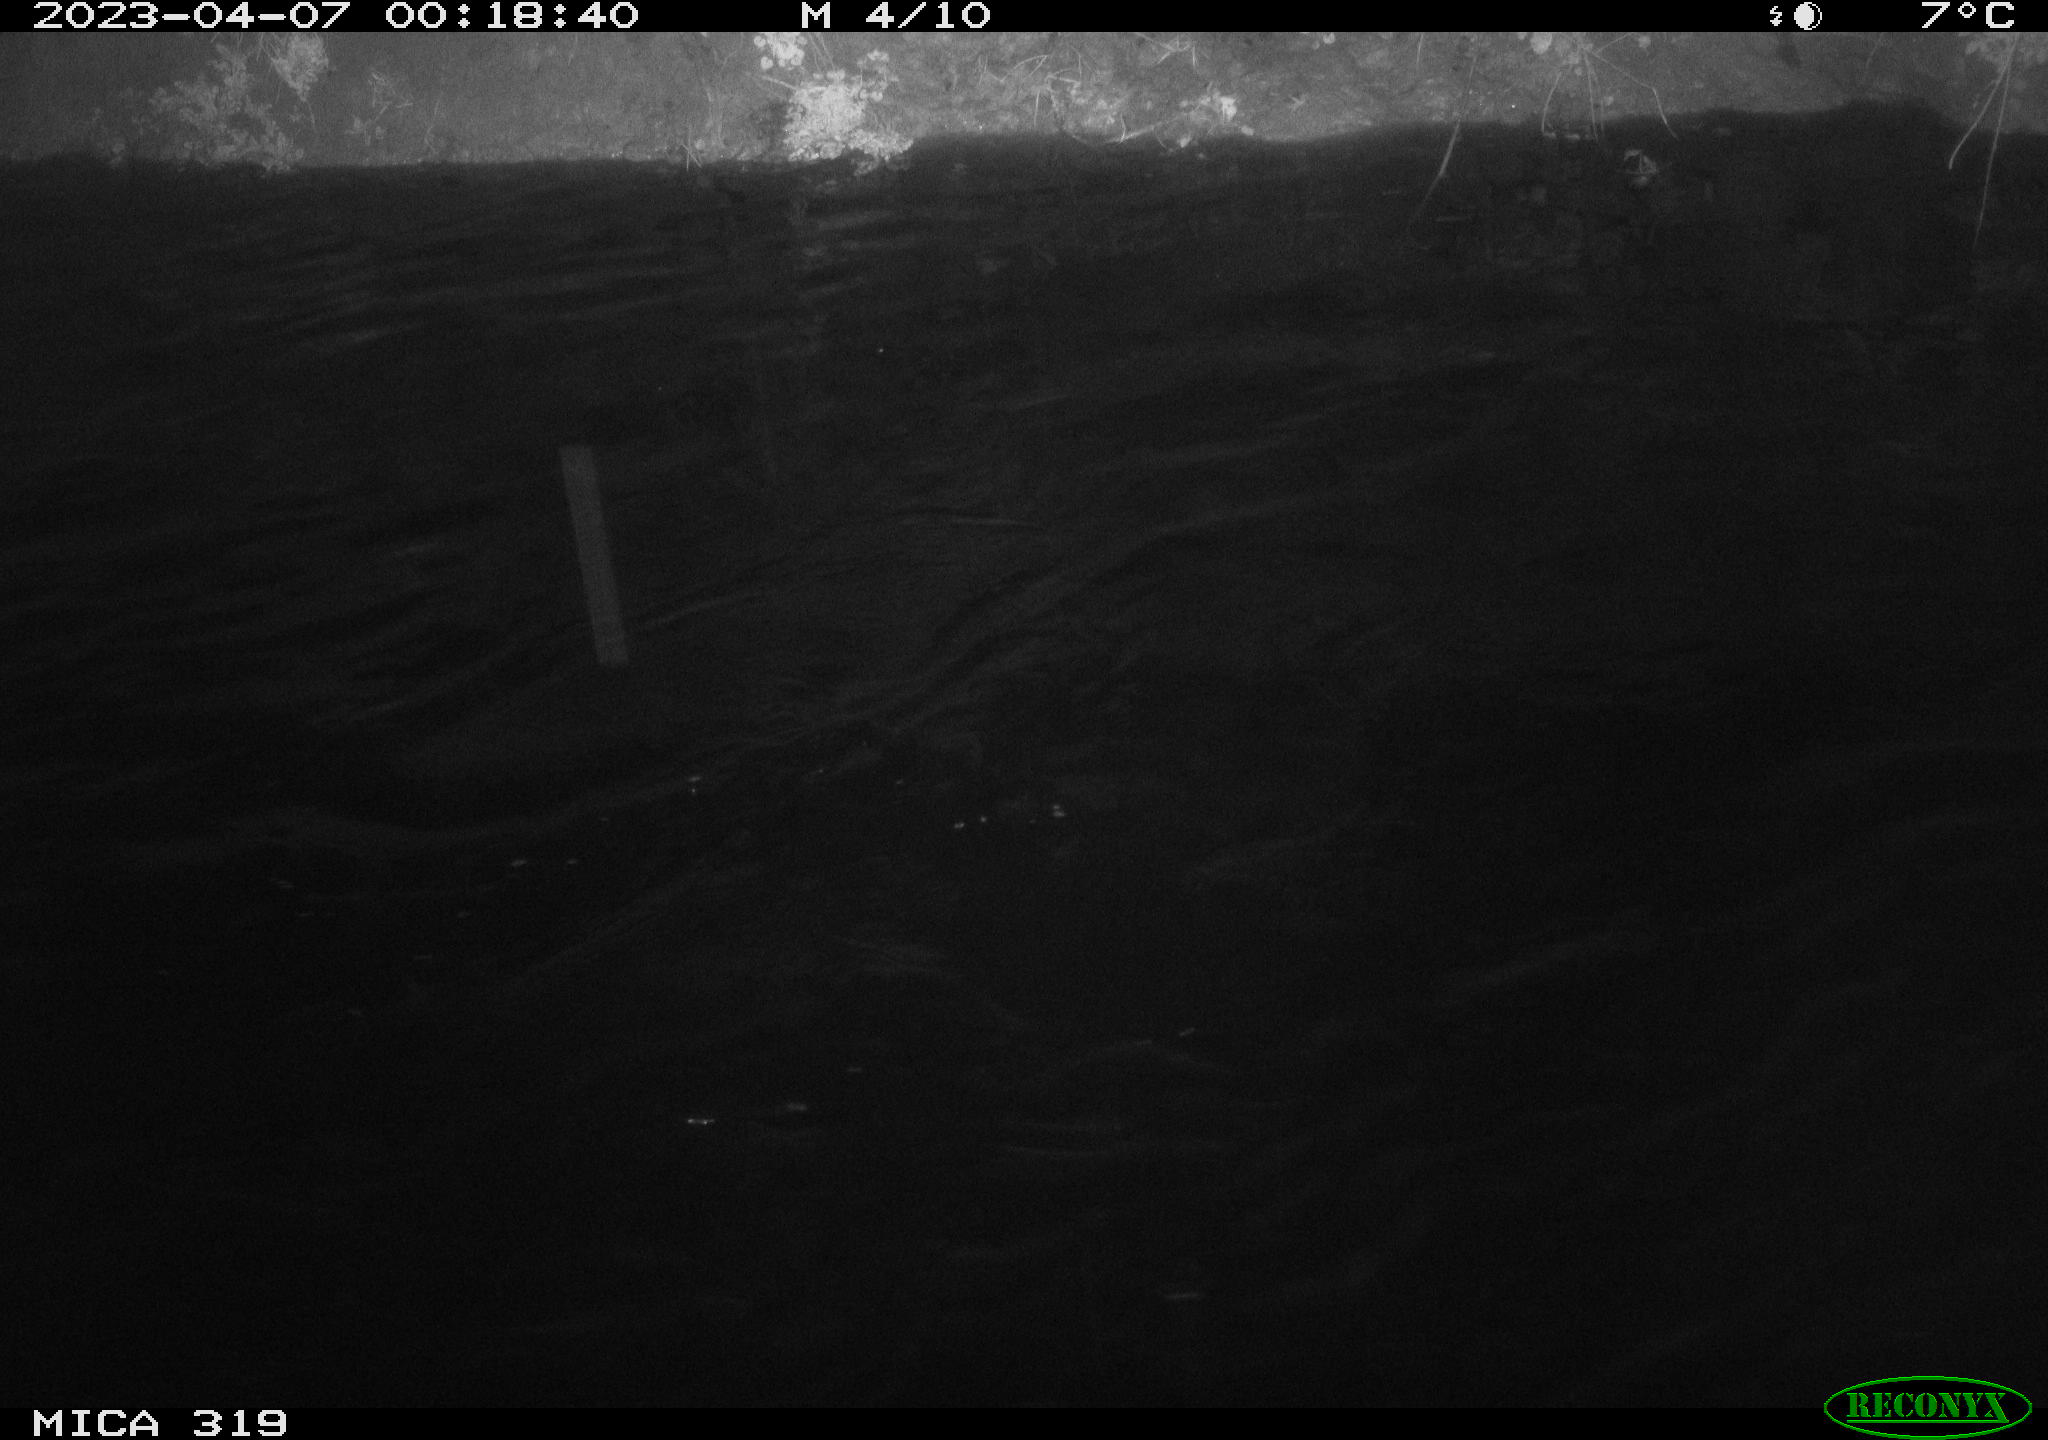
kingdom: Animalia
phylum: Chordata
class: Aves
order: Anseriformes
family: Anatidae
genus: Anas
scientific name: Anas
